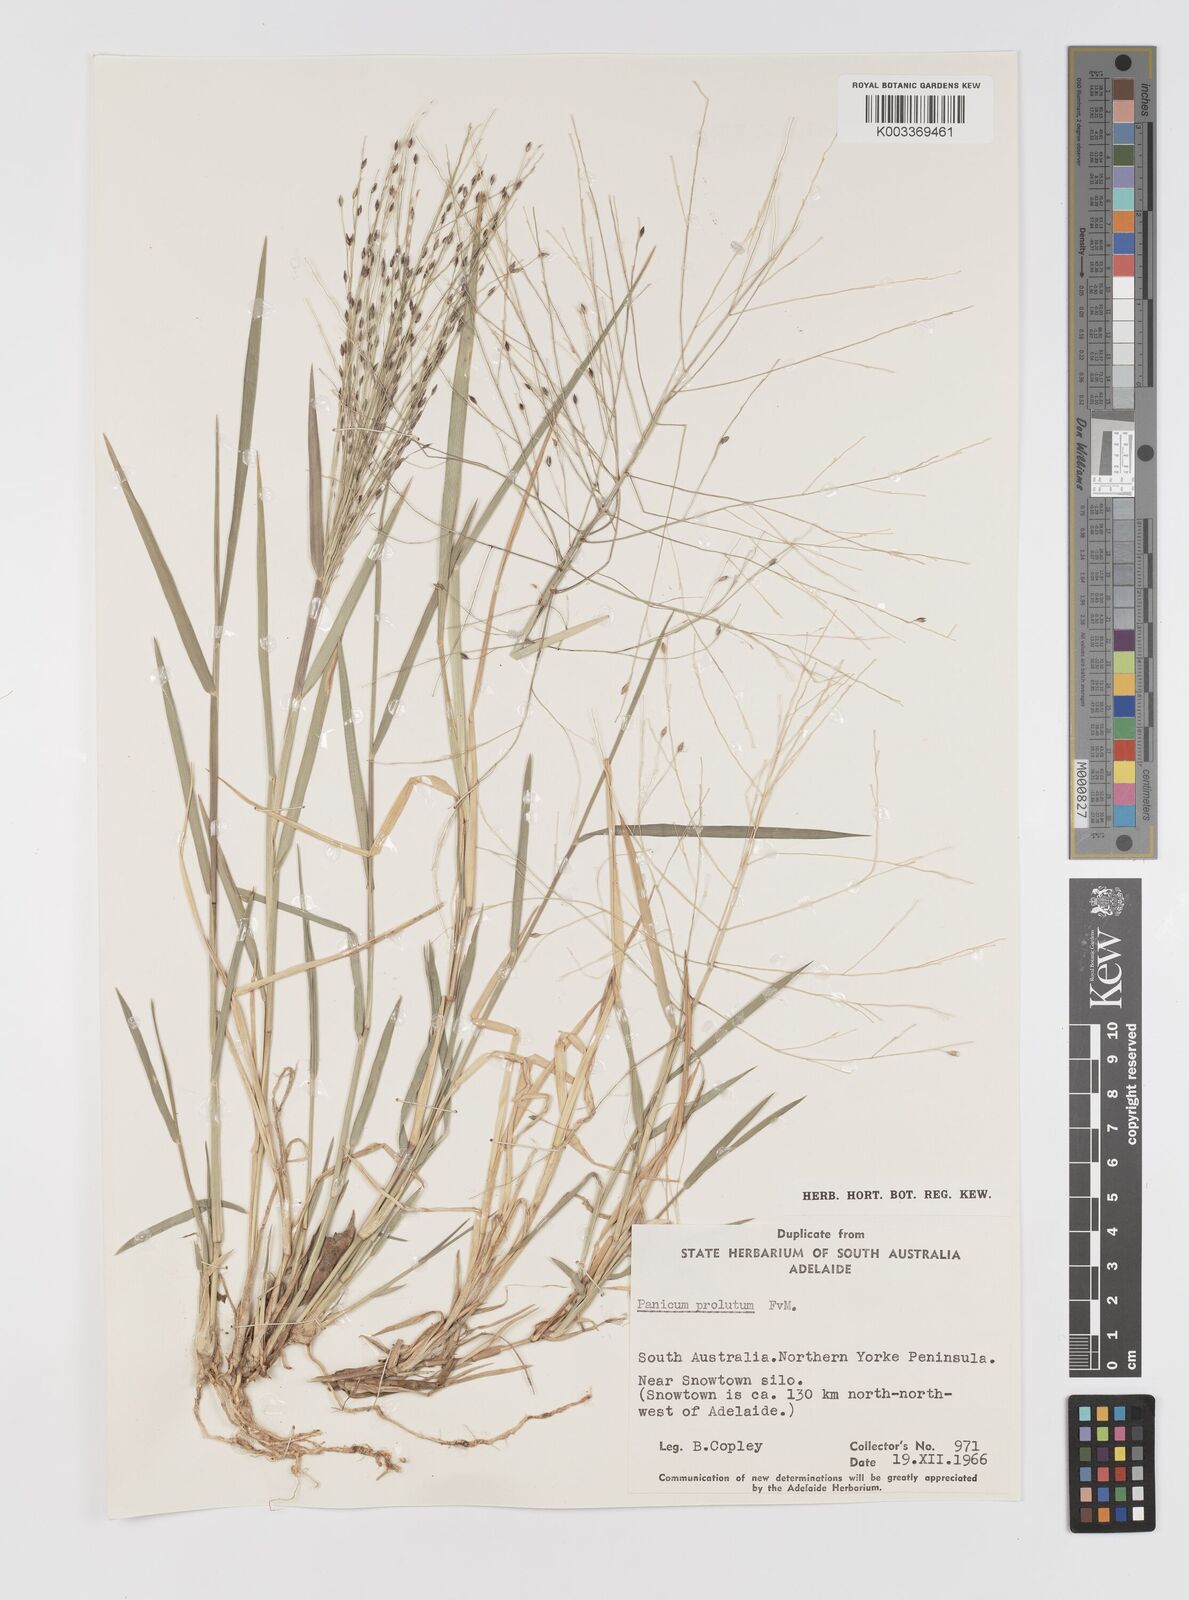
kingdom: Plantae
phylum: Tracheophyta
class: Liliopsida
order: Poales
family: Poaceae
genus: Walwhalleya
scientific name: Walwhalleya proluta
